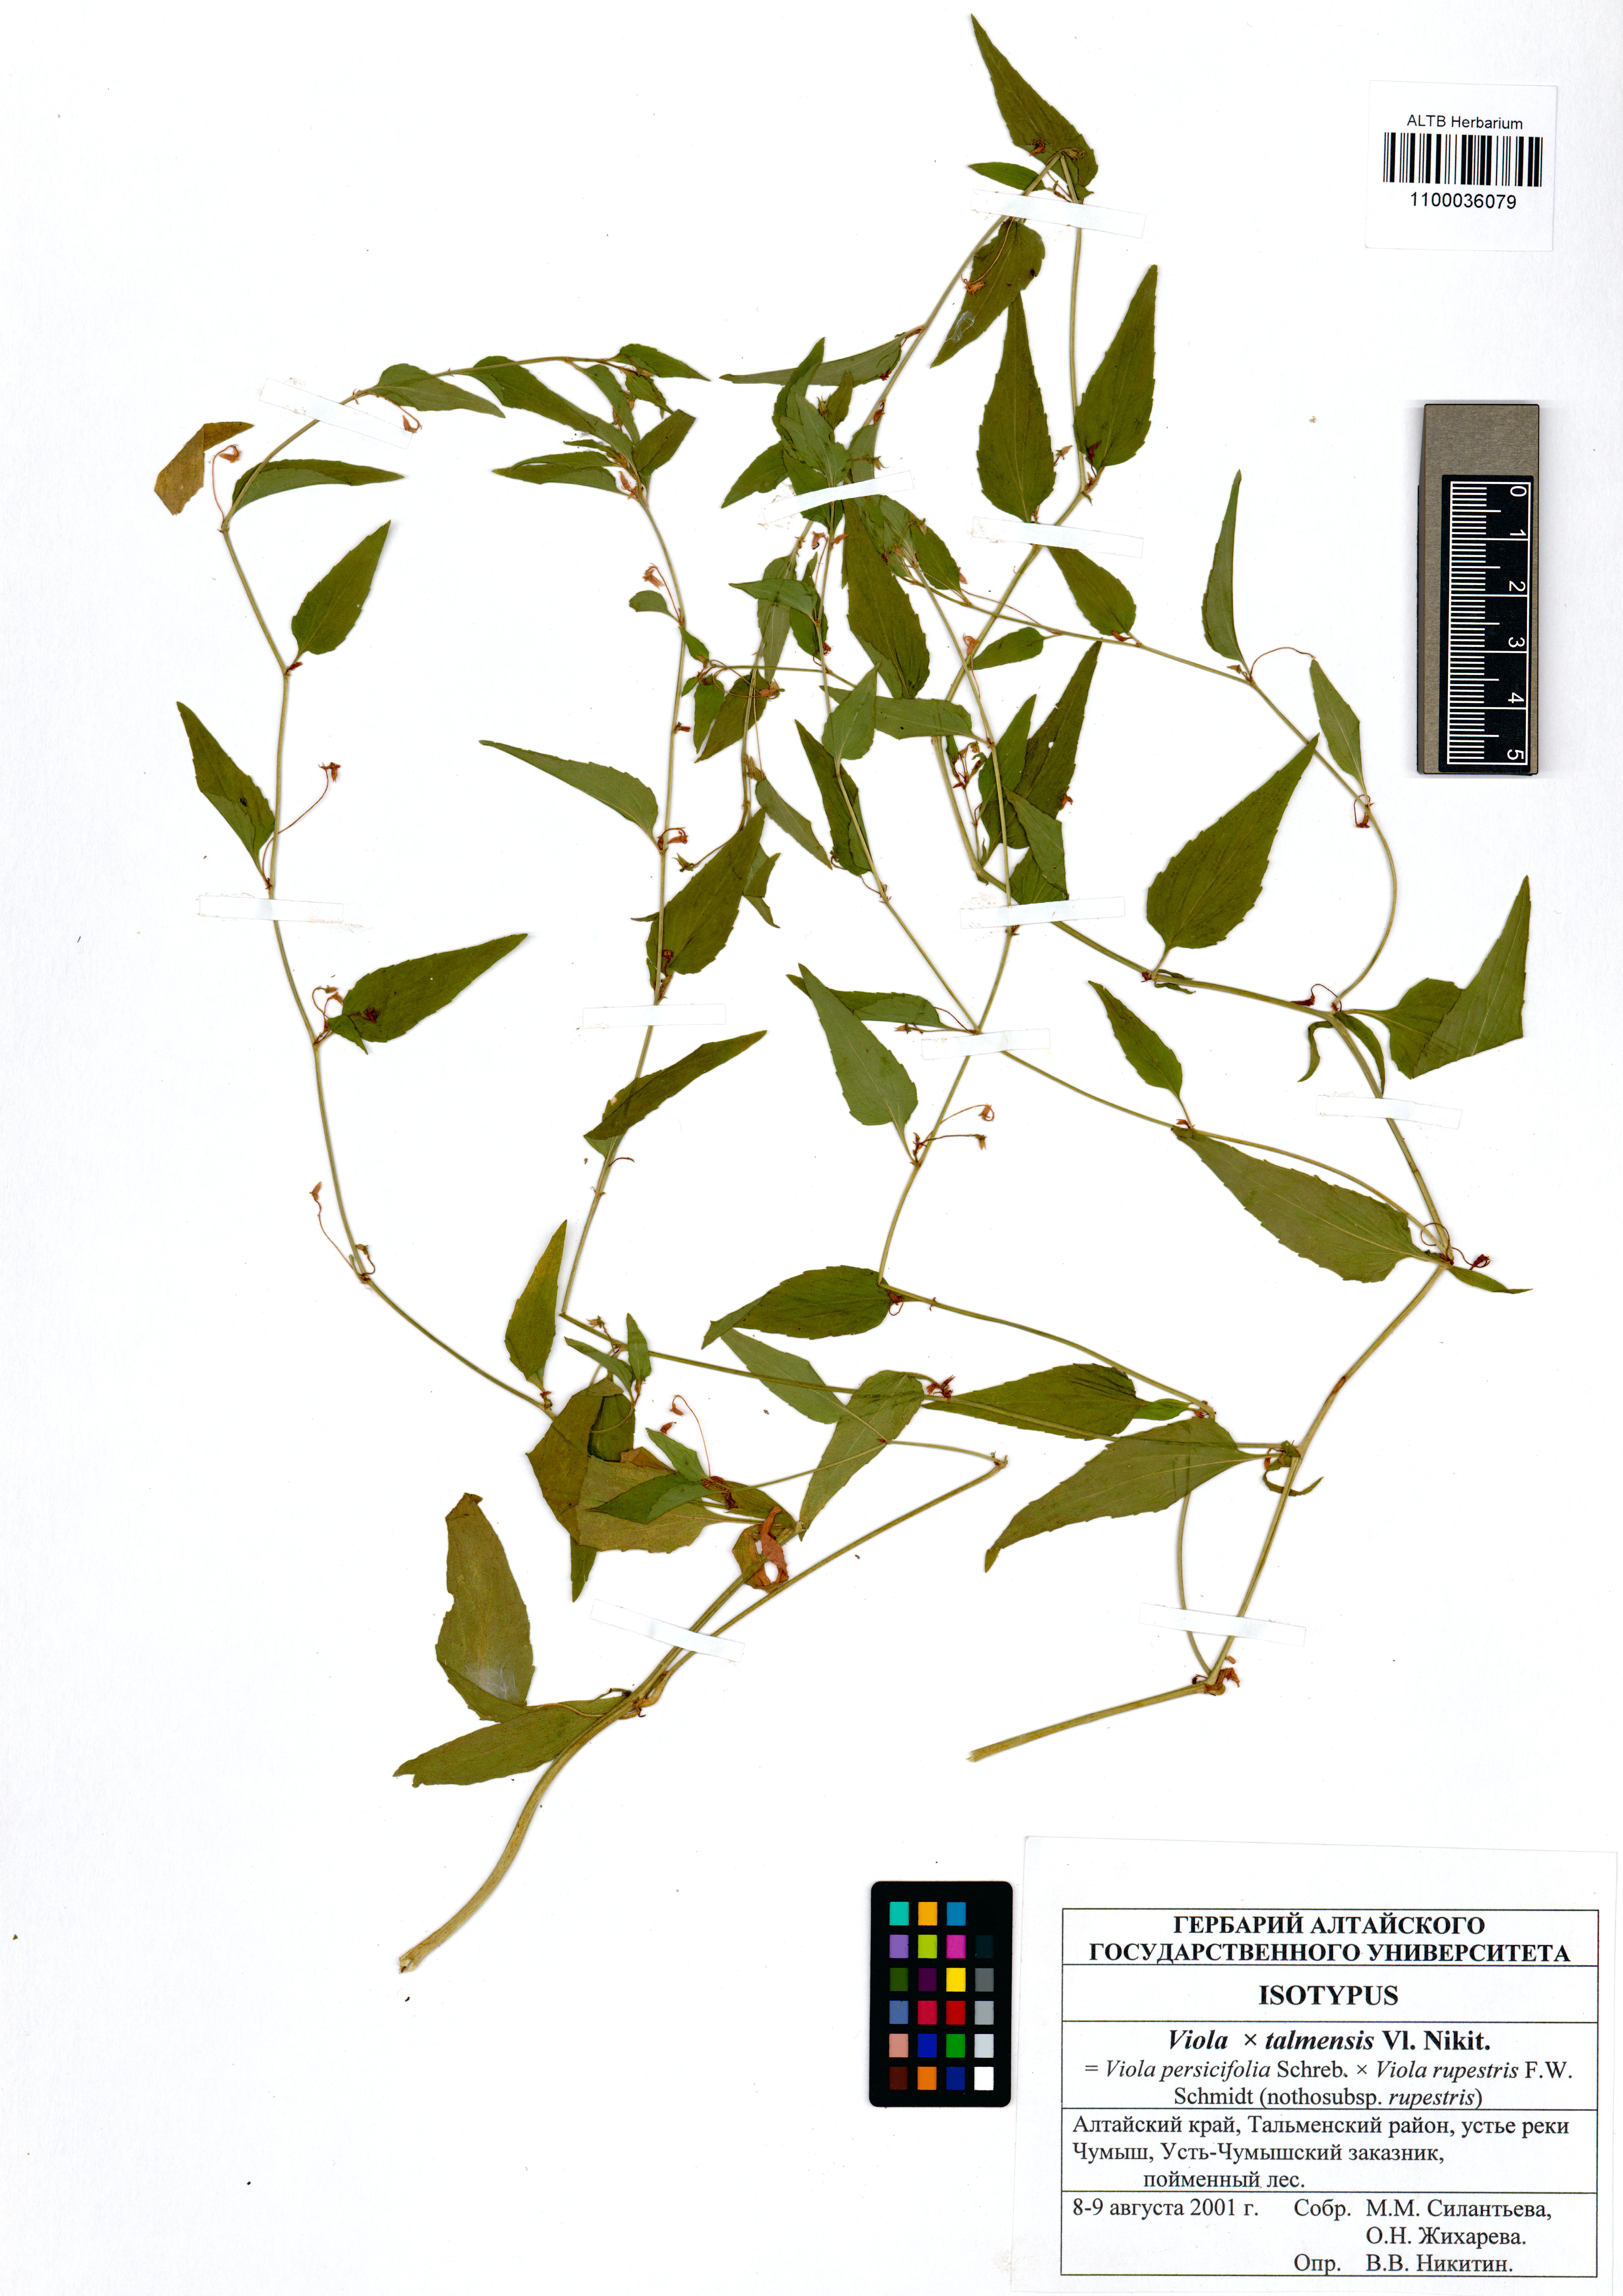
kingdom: Plantae
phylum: Tracheophyta
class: Magnoliopsida
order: Malpighiales
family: Violaceae
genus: Viola
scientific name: Viola vilnaensis
